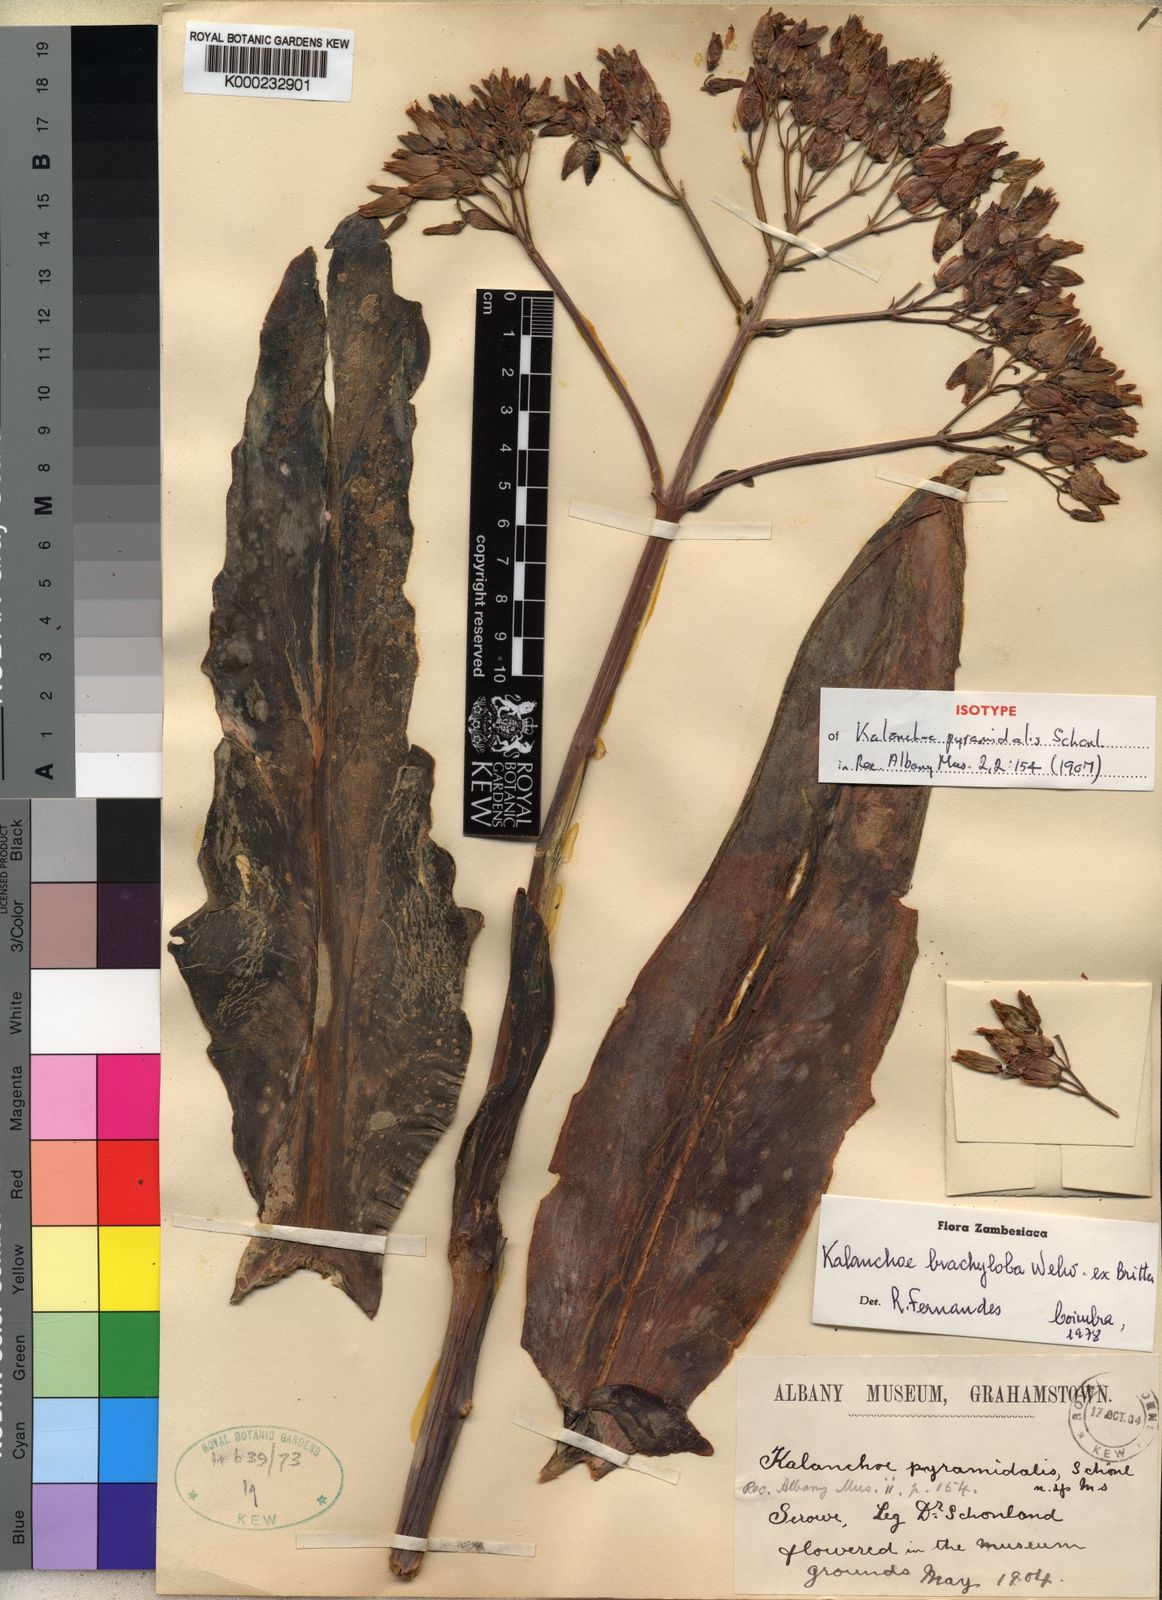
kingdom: Plantae
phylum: Tracheophyta
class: Magnoliopsida
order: Saxifragales
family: Crassulaceae
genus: Kalanchoe
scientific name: Kalanchoe brachyloba
